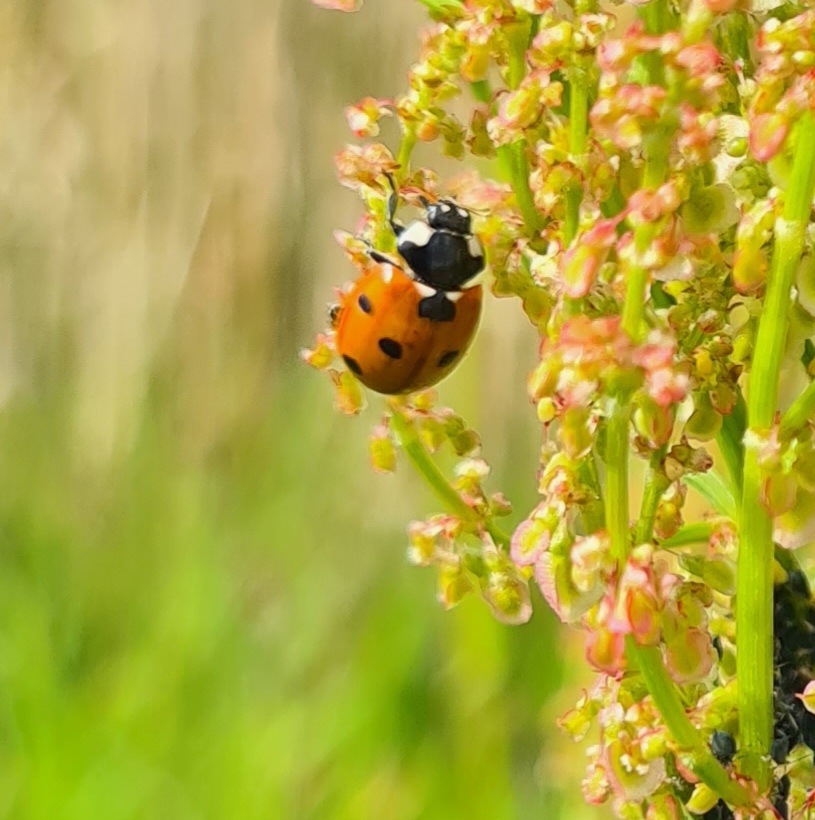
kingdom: Animalia
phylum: Arthropoda
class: Insecta
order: Coleoptera
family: Coccinellidae
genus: Coccinella
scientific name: Coccinella septempunctata
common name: Syvplettet mariehøne
